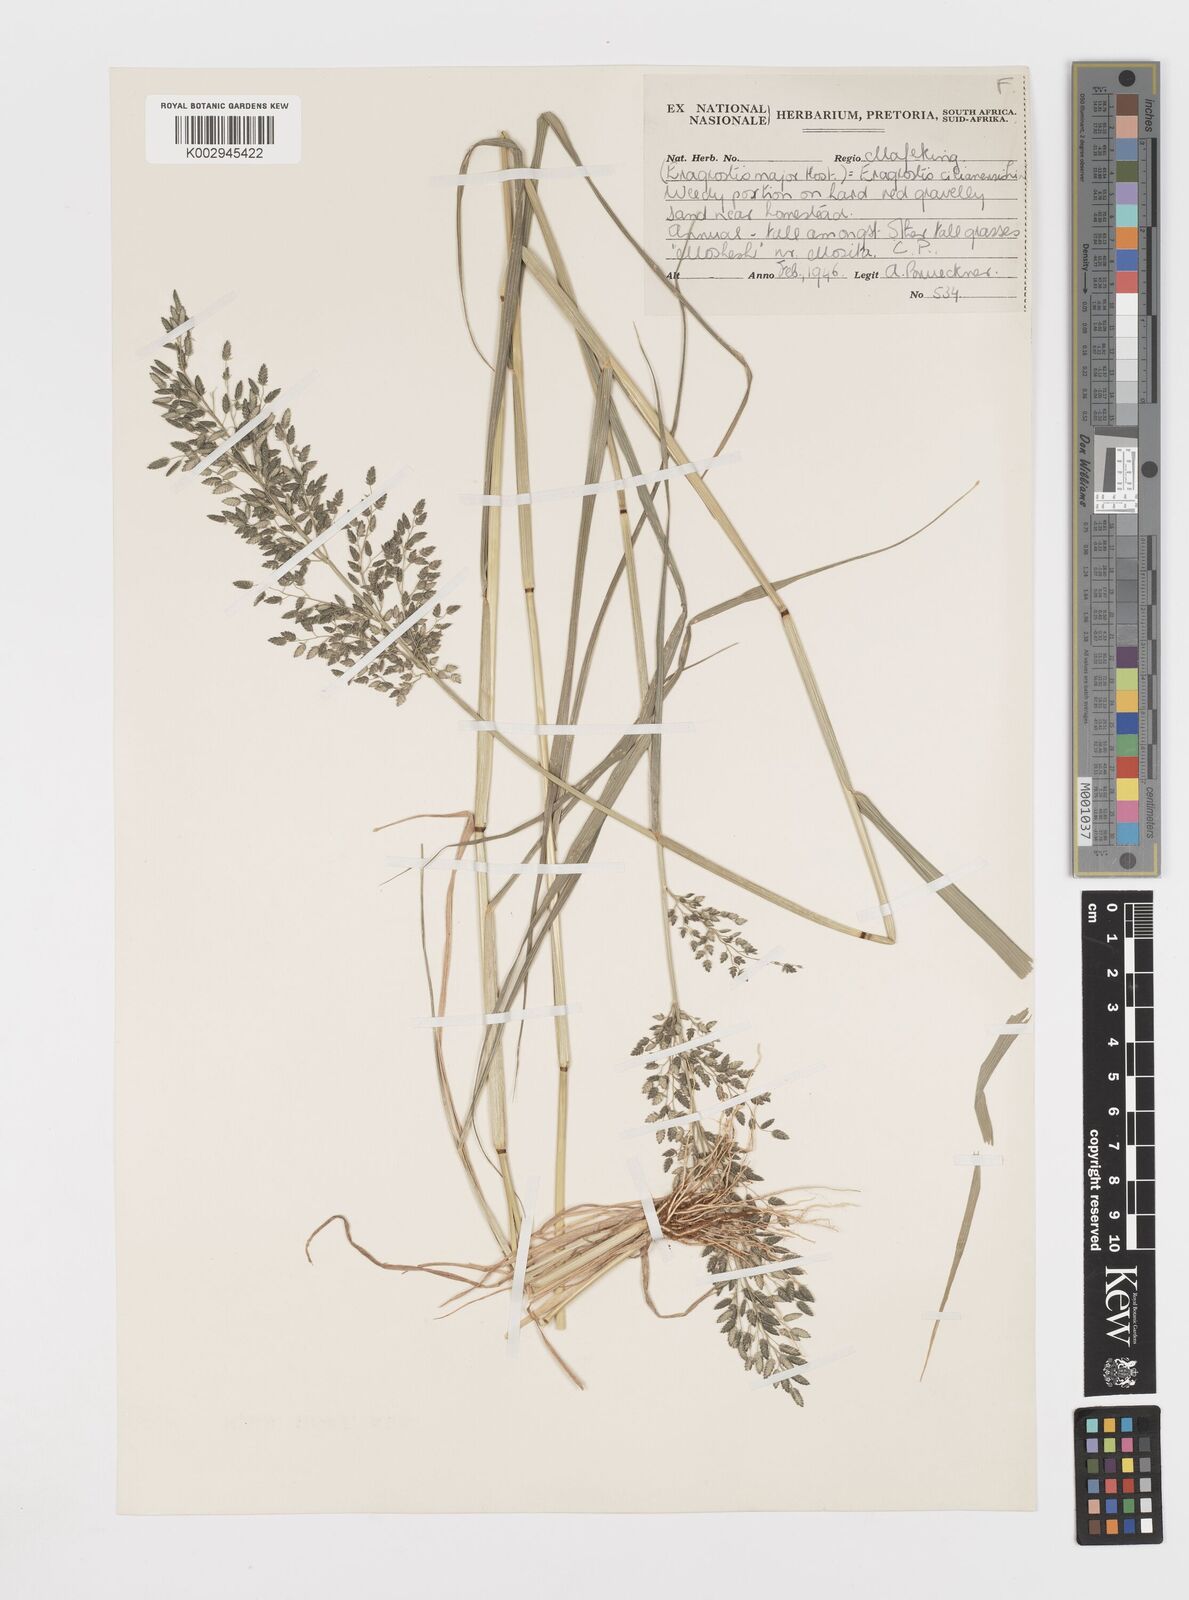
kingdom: Plantae
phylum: Tracheophyta
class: Liliopsida
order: Poales
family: Poaceae
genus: Eragrostis
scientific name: Eragrostis cilianensis
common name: Stinkgrass
